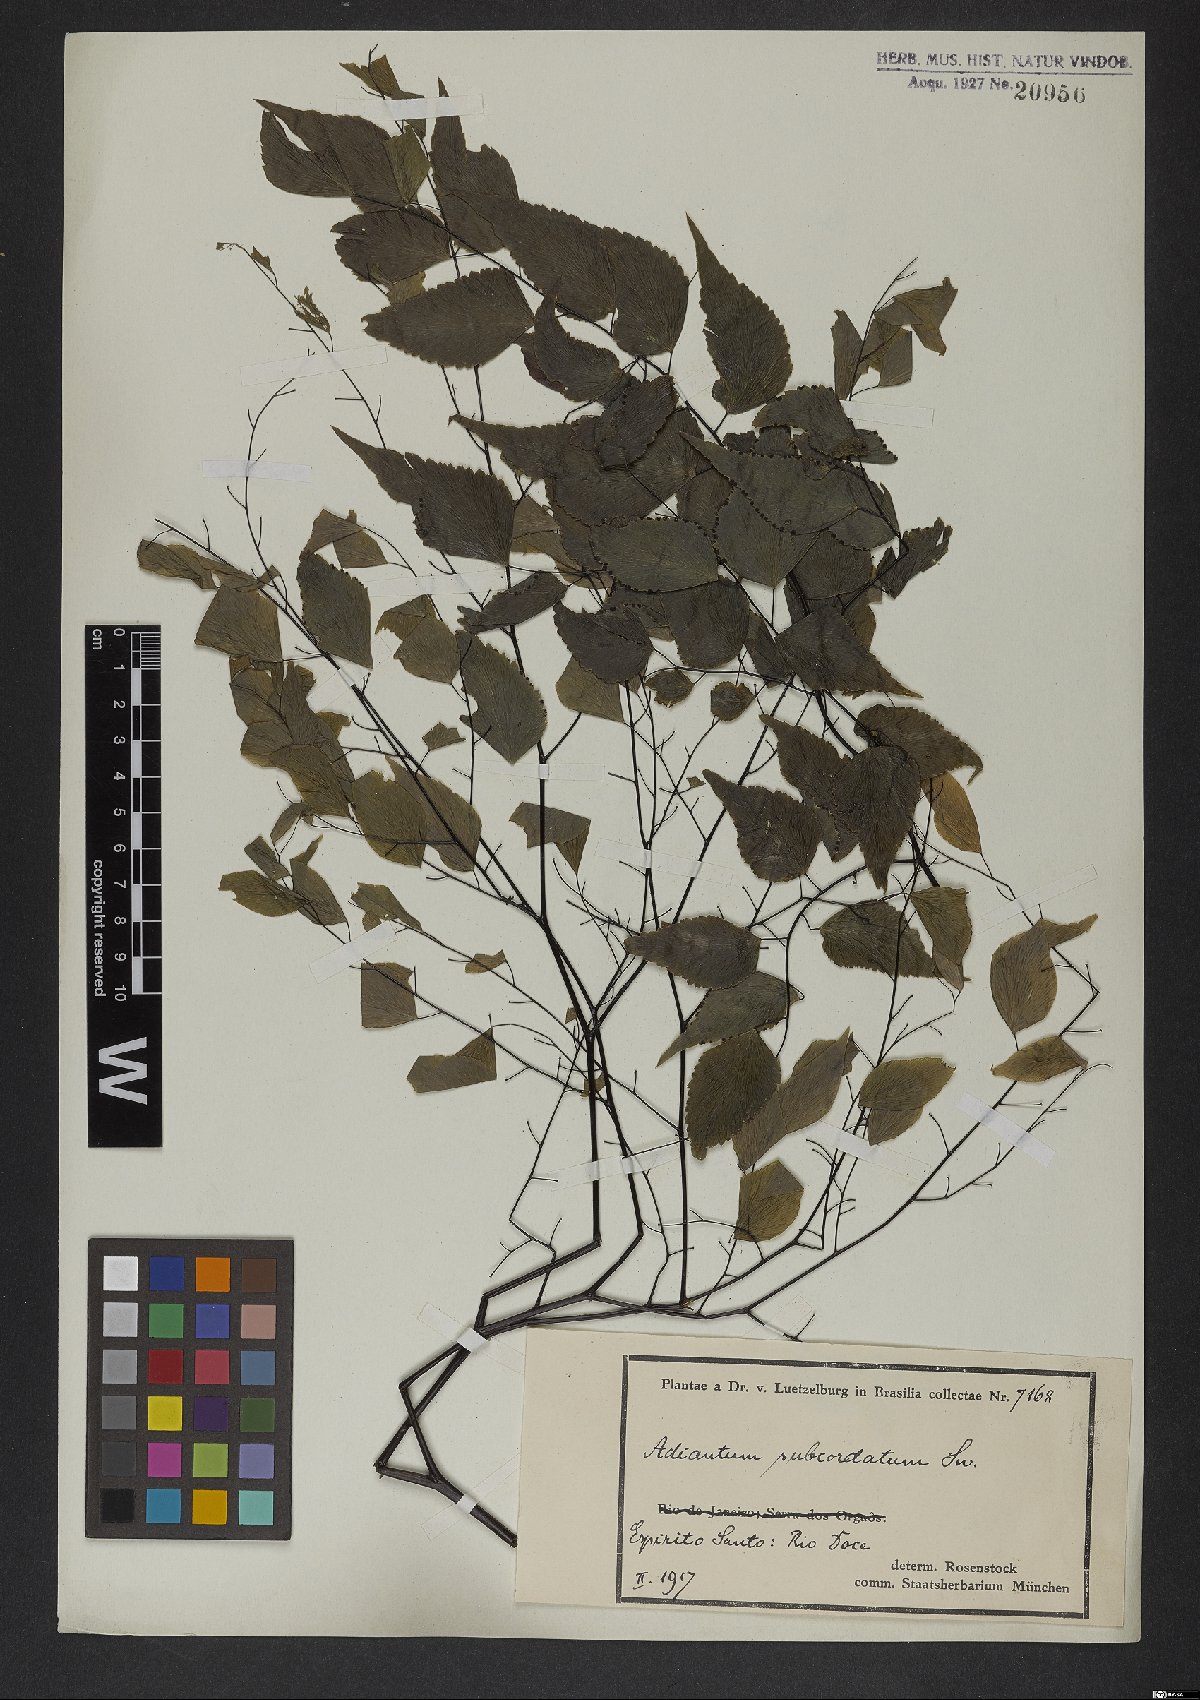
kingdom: Plantae
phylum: Tracheophyta
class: Polypodiopsida
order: Polypodiales
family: Pteridaceae
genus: Adiantum
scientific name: Adiantum subcordatum
